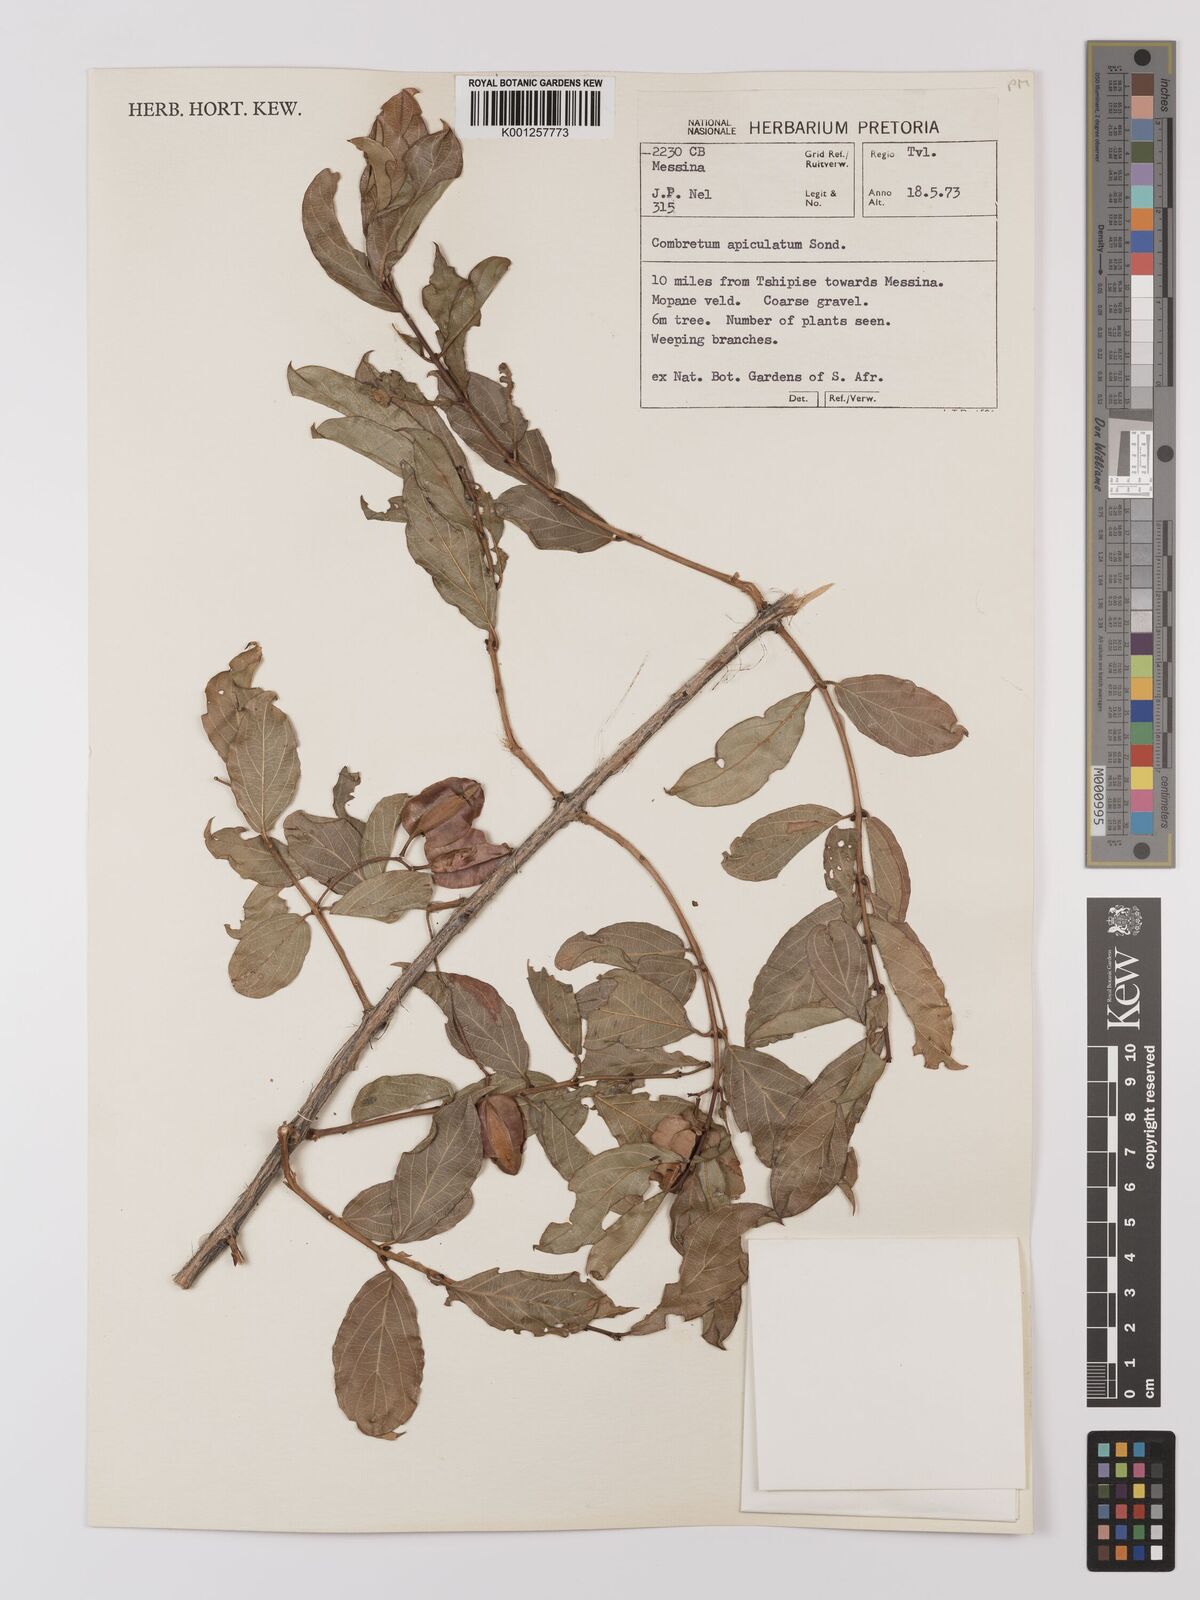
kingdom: Plantae
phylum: Tracheophyta
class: Magnoliopsida
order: Myrtales
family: Combretaceae
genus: Combretum
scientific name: Combretum apiculatum
